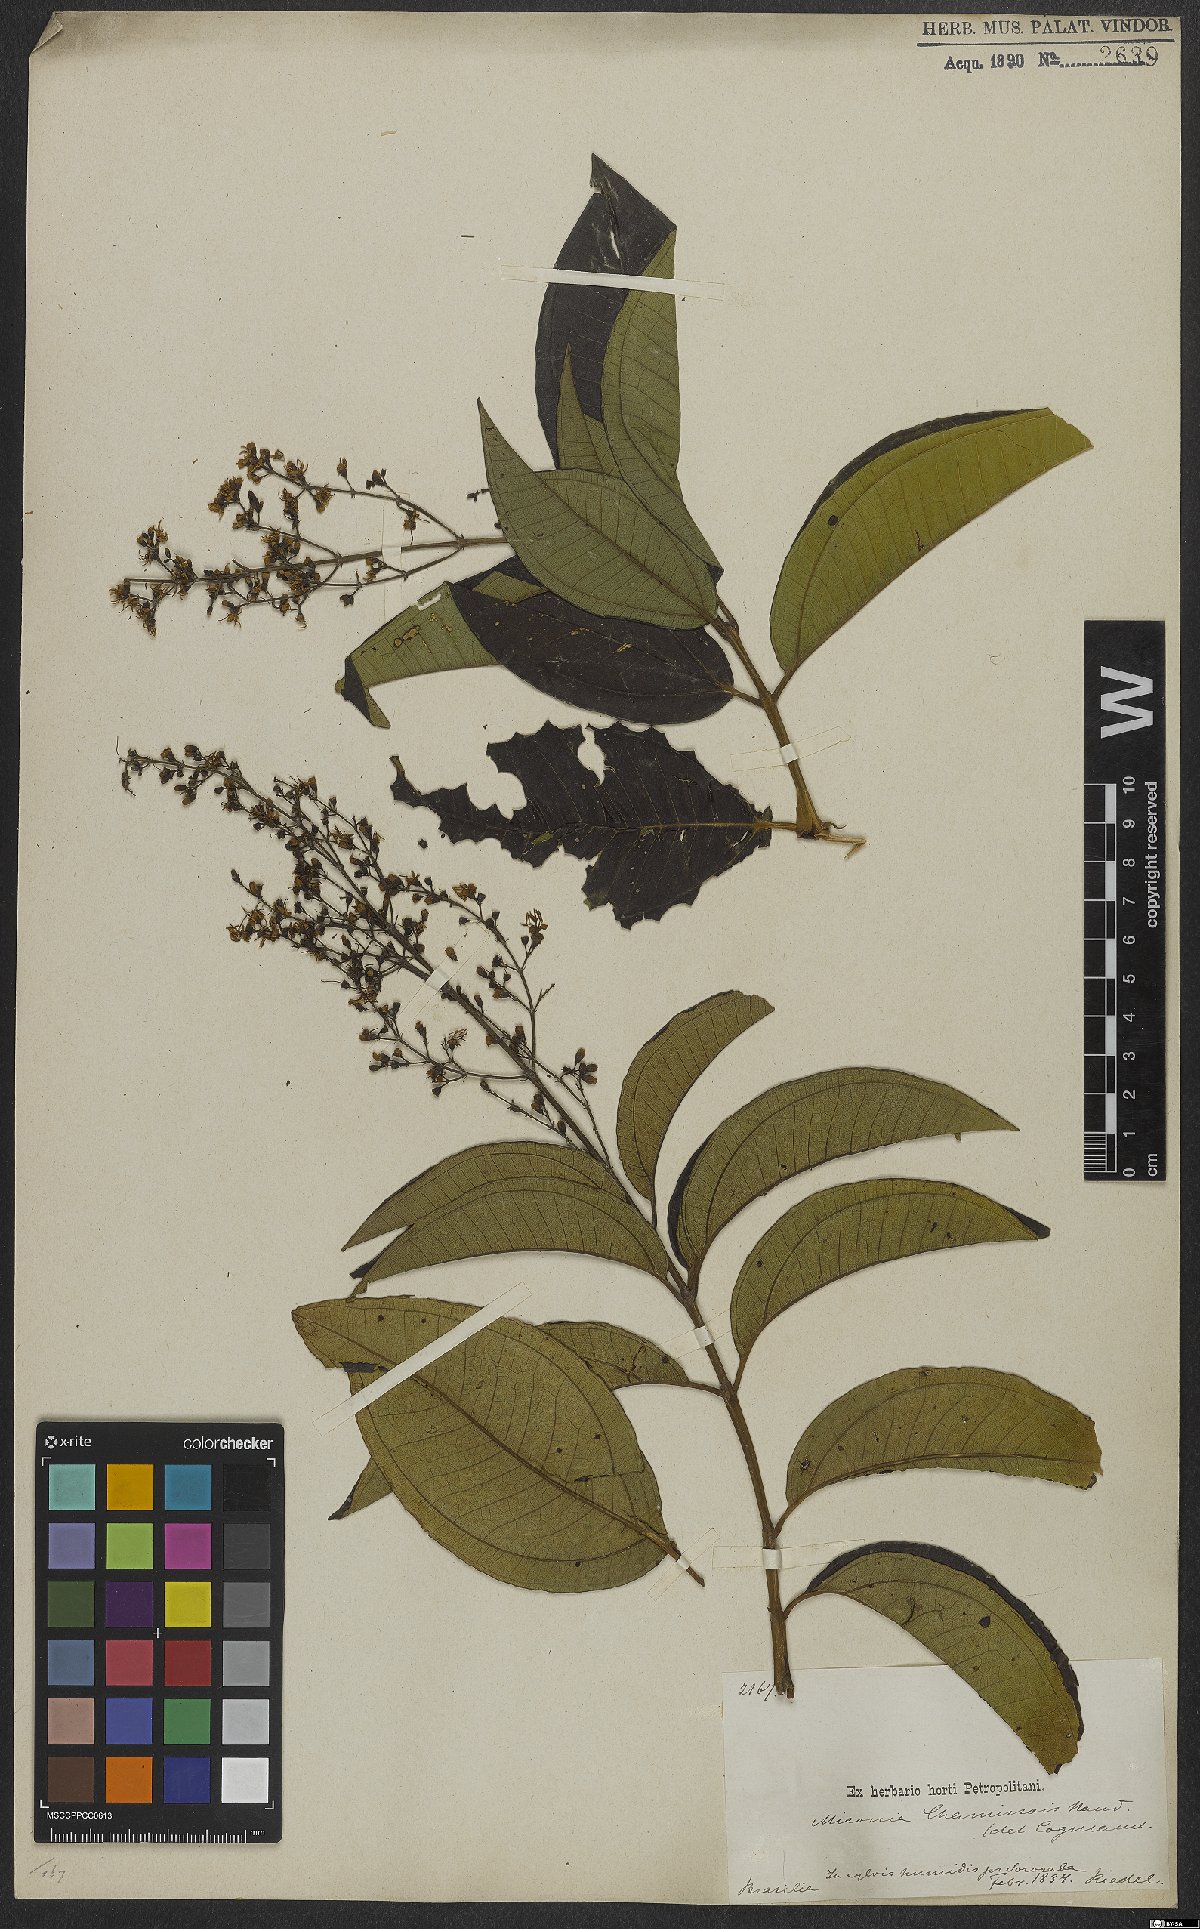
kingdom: Plantae
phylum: Tracheophyta
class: Magnoliopsida
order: Myrtales
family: Melastomataceae
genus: Miconia
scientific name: Miconia chamissois
